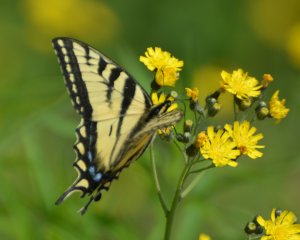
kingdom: Animalia
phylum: Arthropoda
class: Insecta
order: Lepidoptera
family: Papilionidae
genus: Pterourus
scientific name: Pterourus canadensis
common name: Canadian Tiger Swallowtail
